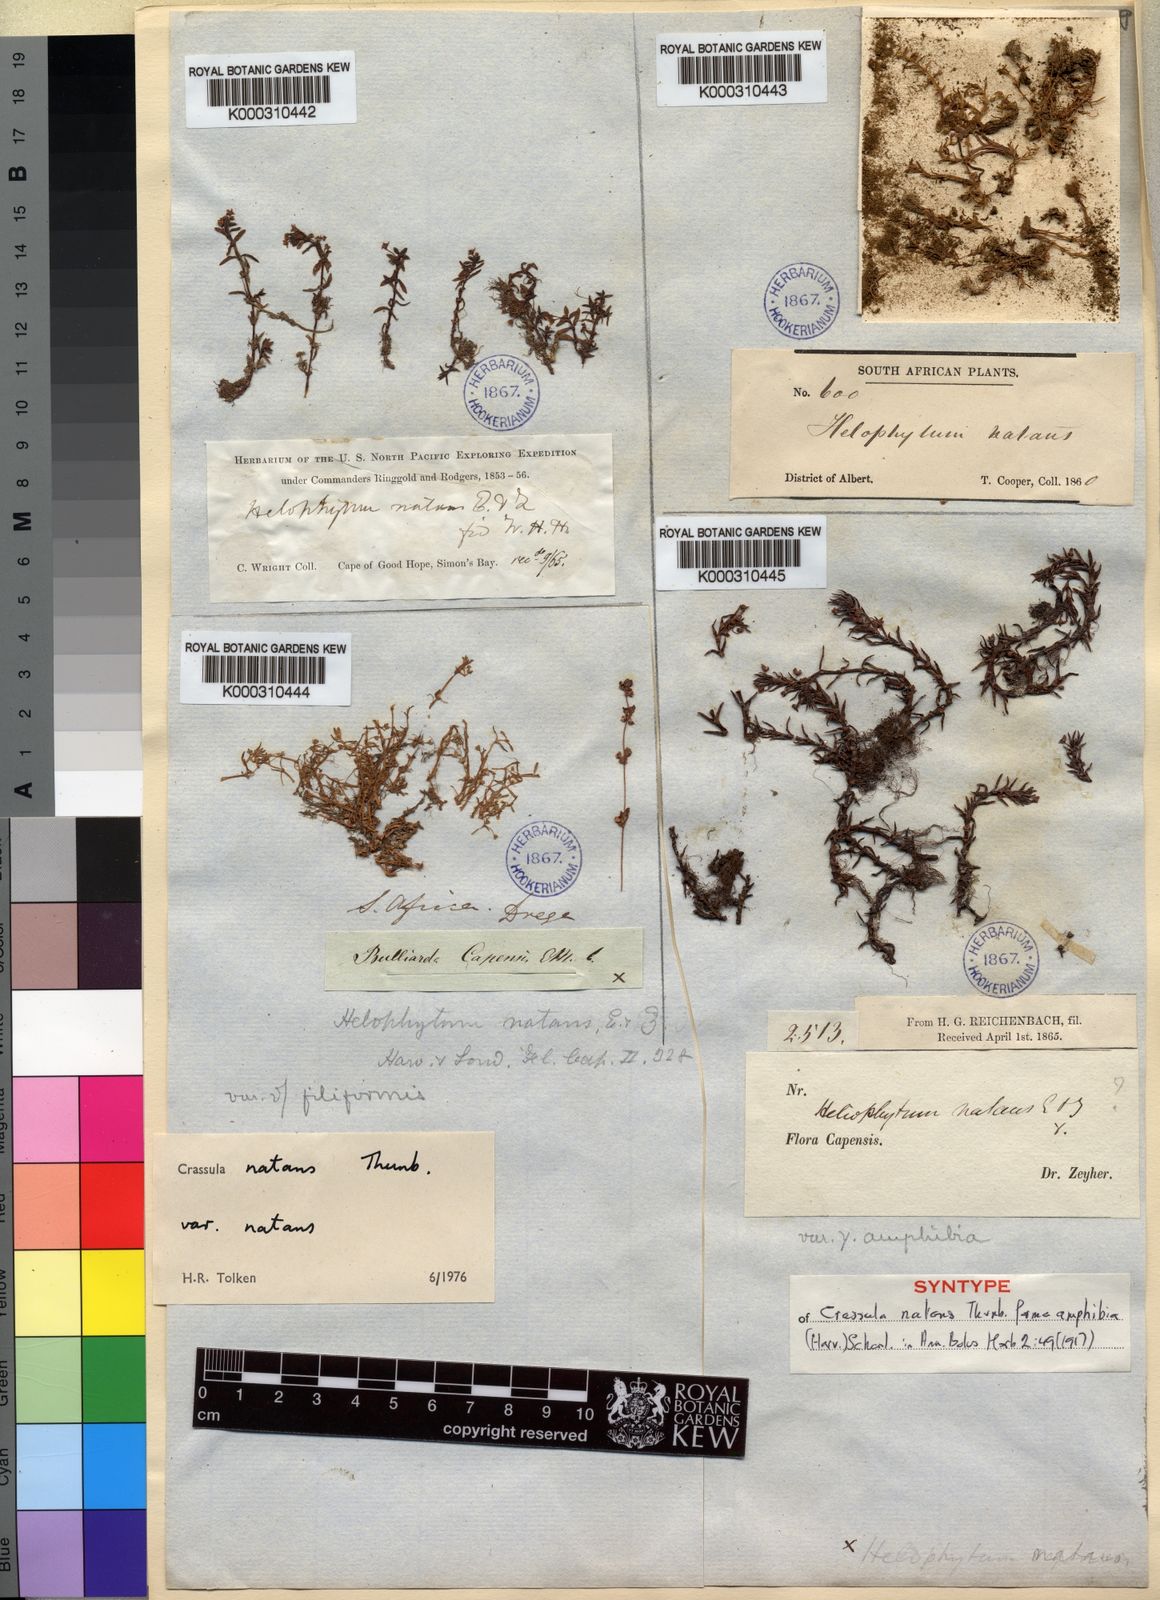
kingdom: Plantae
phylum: Tracheophyta
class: Magnoliopsida
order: Saxifragales
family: Crassulaceae
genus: Crassula
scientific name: Crassula natans
